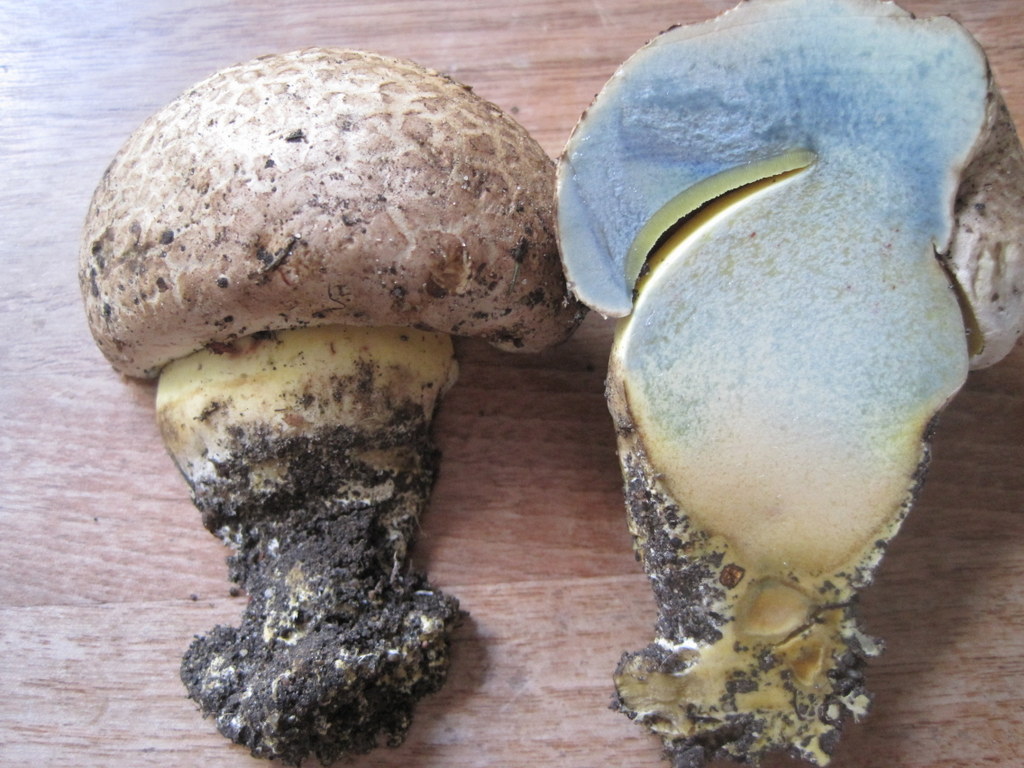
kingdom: Fungi
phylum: Basidiomycota
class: Agaricomycetes
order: Boletales
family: Boletaceae
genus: Caloboletus
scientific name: Caloboletus radicans
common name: rod-rørhat
